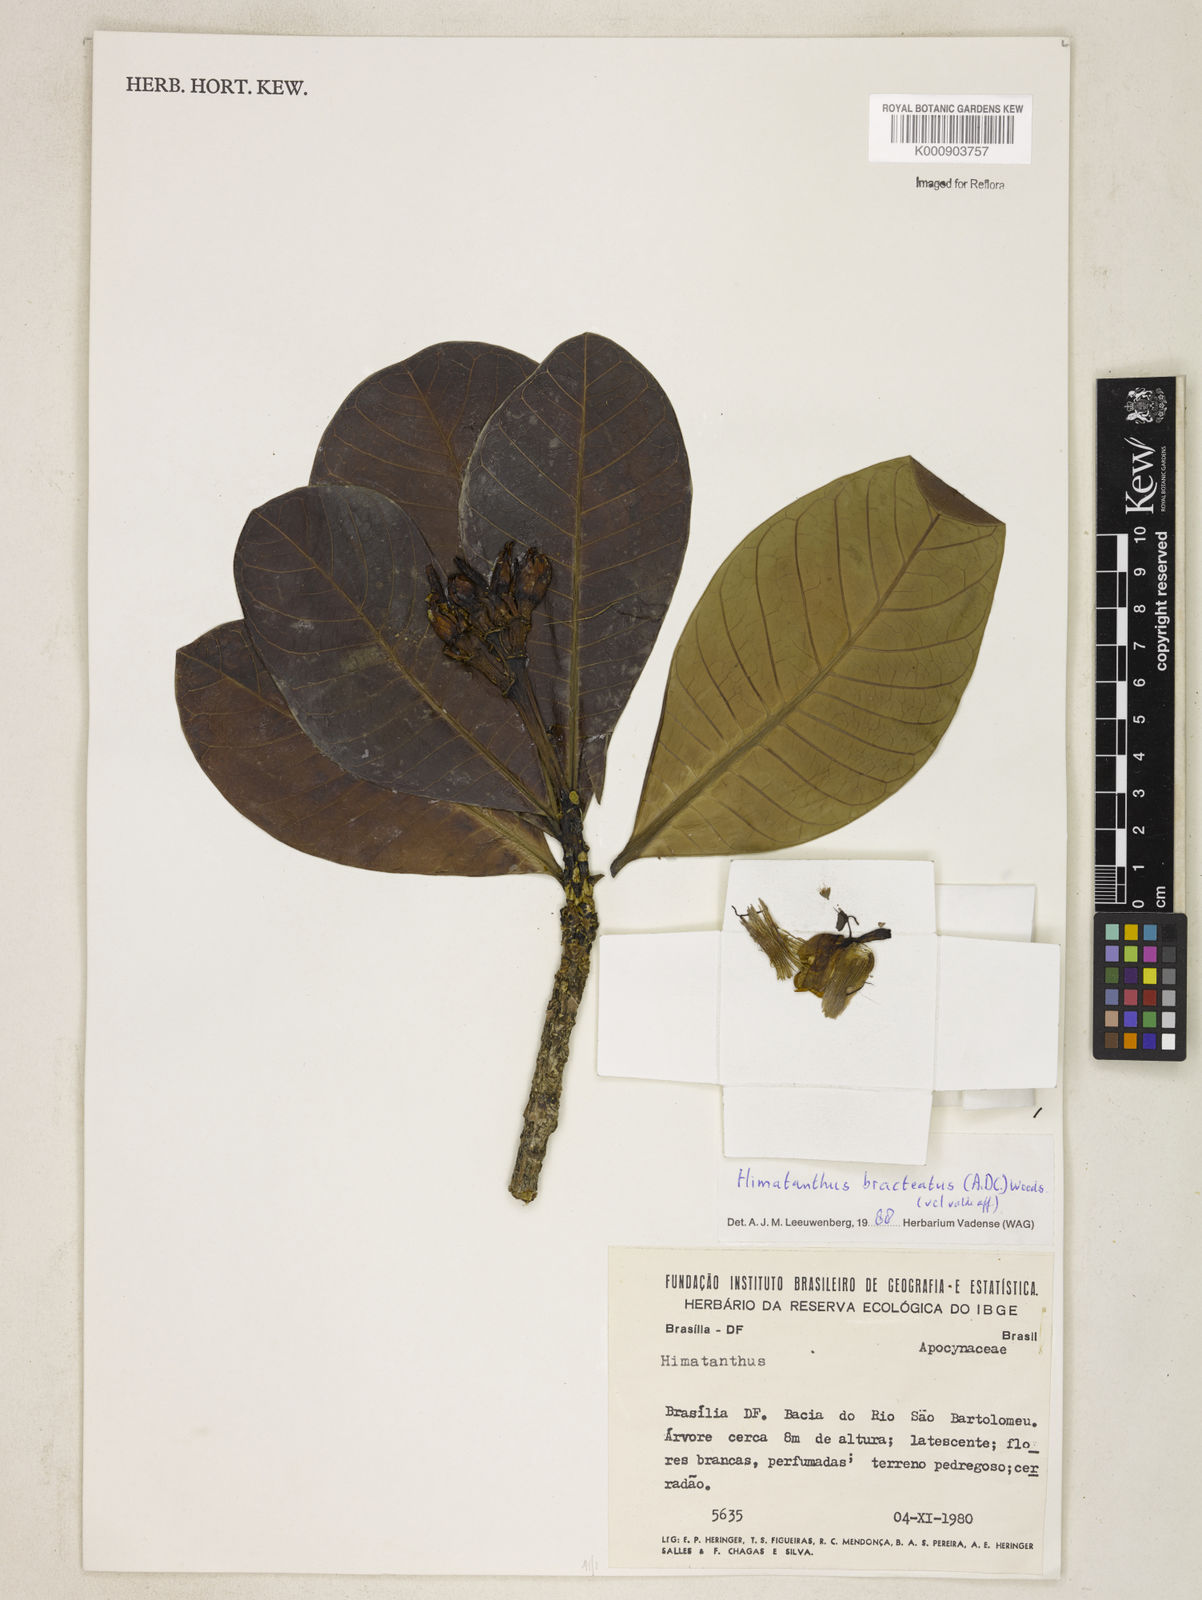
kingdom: Plantae
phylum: Tracheophyta
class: Magnoliopsida
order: Gentianales
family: Apocynaceae
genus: Himatanthus
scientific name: Himatanthus bracteatus
